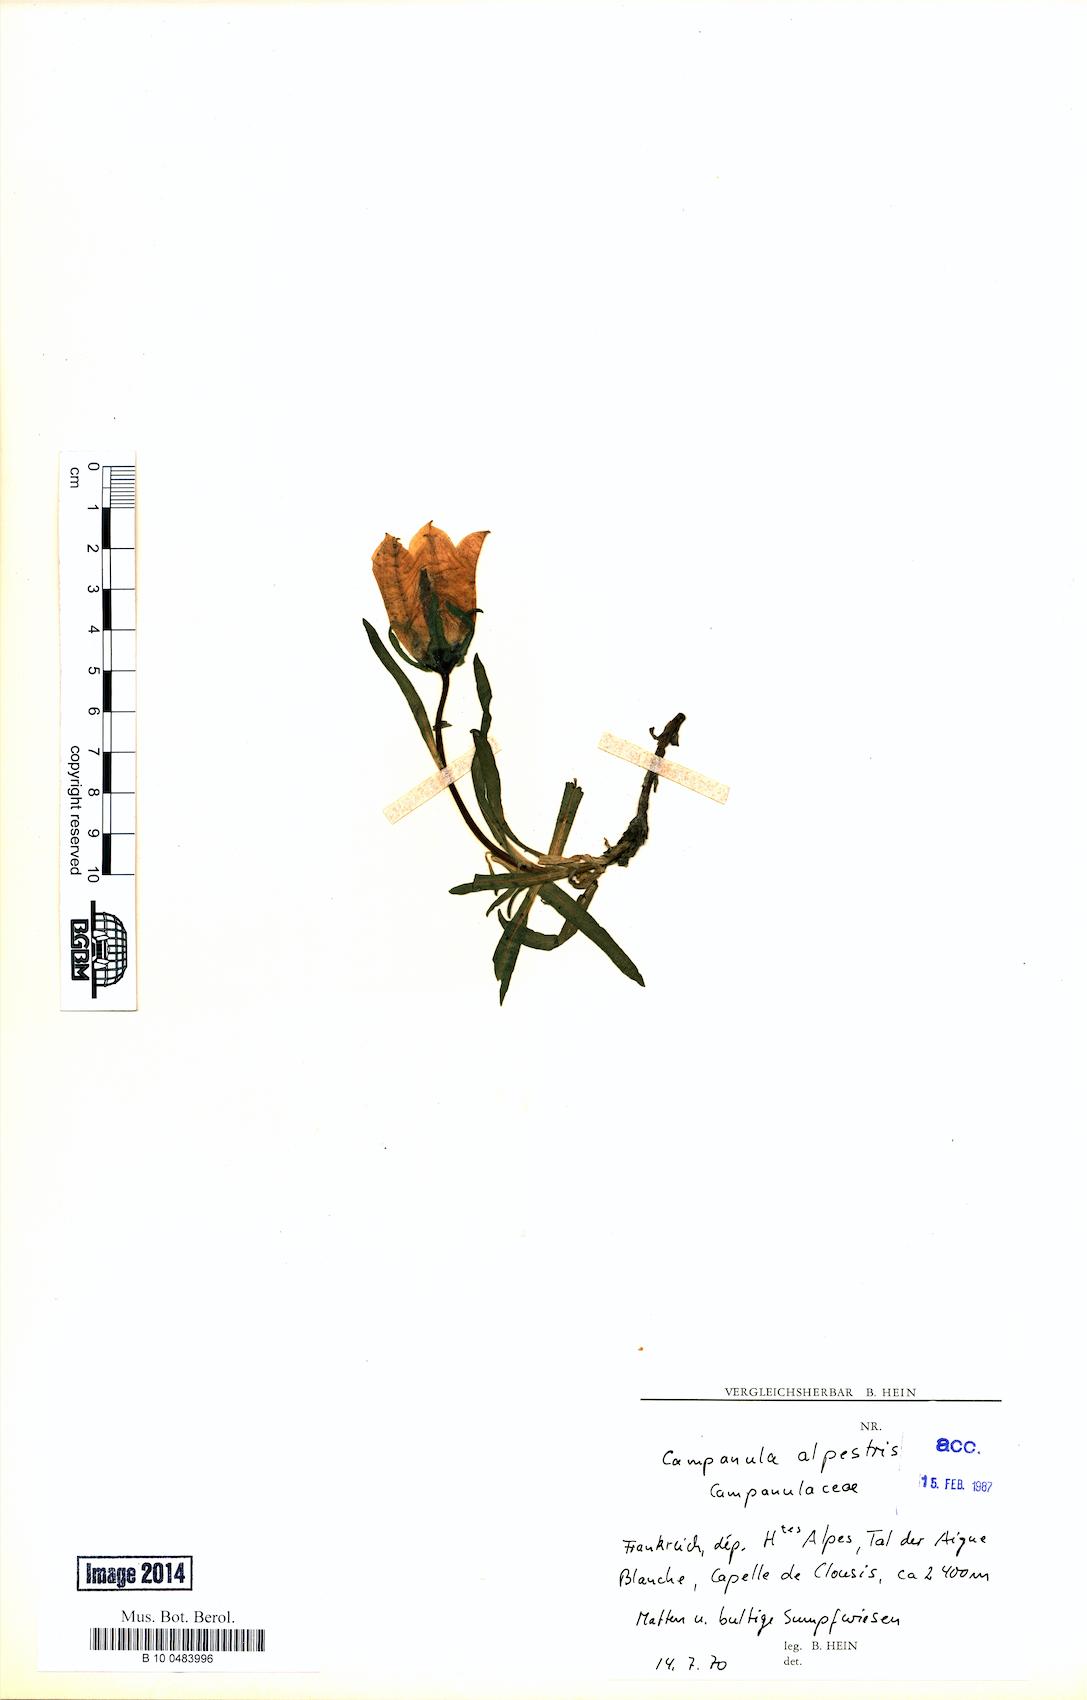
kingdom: Plantae
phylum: Tracheophyta
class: Magnoliopsida
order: Asterales
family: Campanulaceae
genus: Campanula
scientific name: Campanula alpestris
